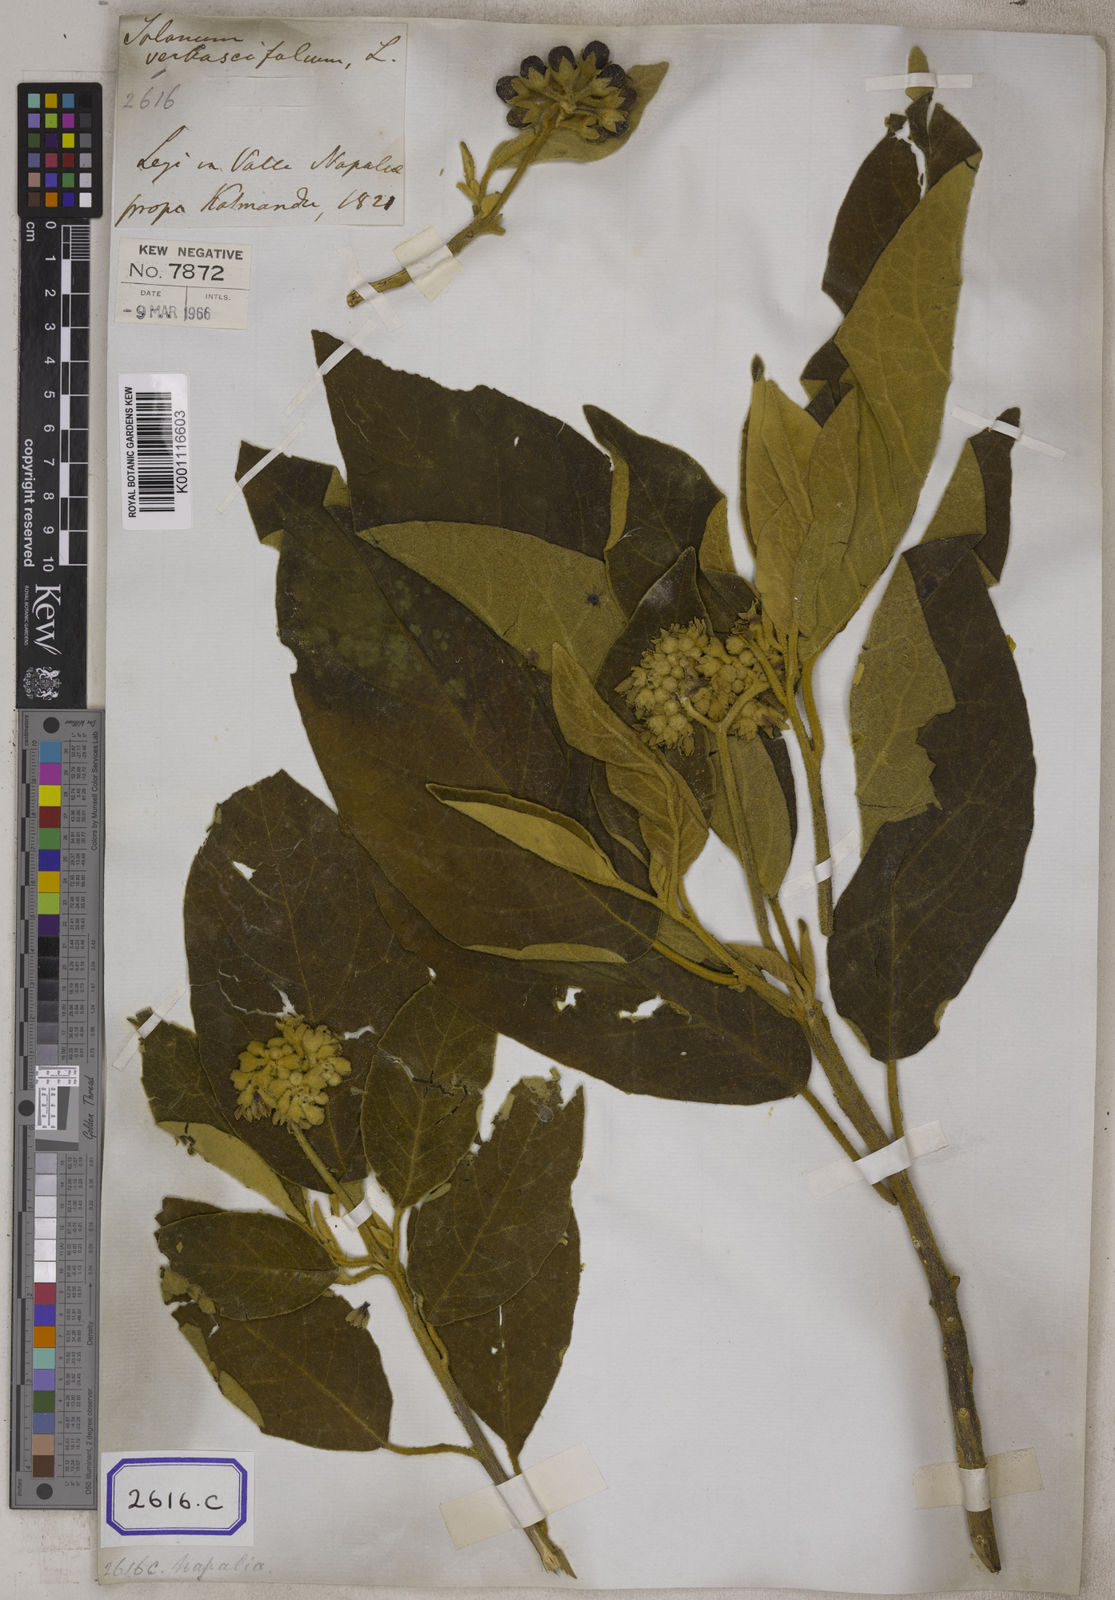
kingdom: Plantae
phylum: Tracheophyta
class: Magnoliopsida
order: Solanales
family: Solanaceae
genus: Solanum
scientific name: Solanum donianum
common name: Mullein nightshade
